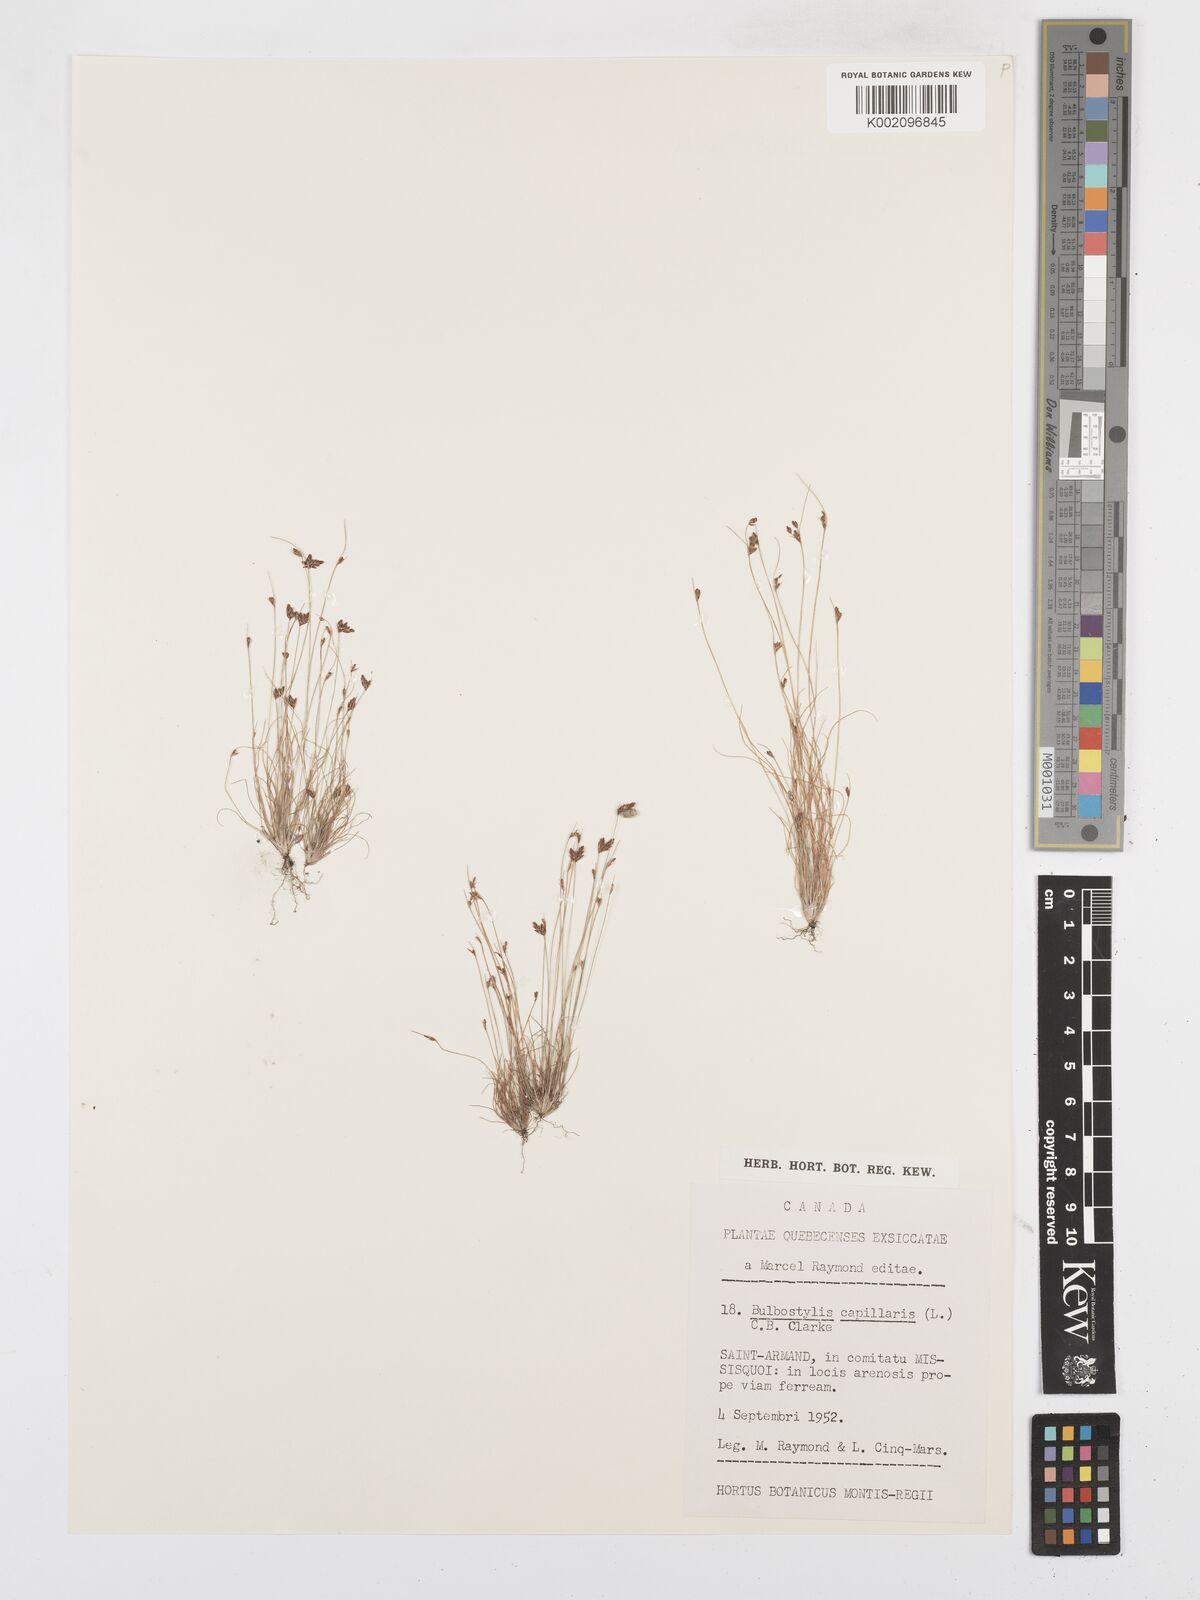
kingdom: Plantae
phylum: Tracheophyta
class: Liliopsida
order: Poales
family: Cyperaceae
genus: Bulbostylis
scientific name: Bulbostylis capillaris
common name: Densetuft hairsedge
